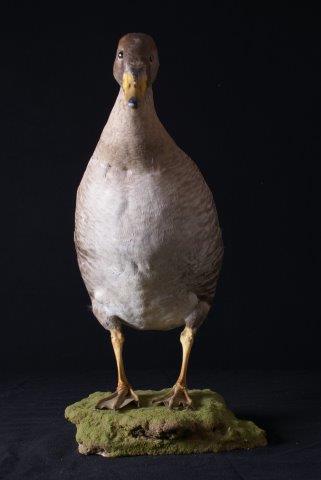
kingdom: Animalia
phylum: Chordata
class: Aves
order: Anseriformes
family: Anatidae
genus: Anser
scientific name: Anser fabalis
